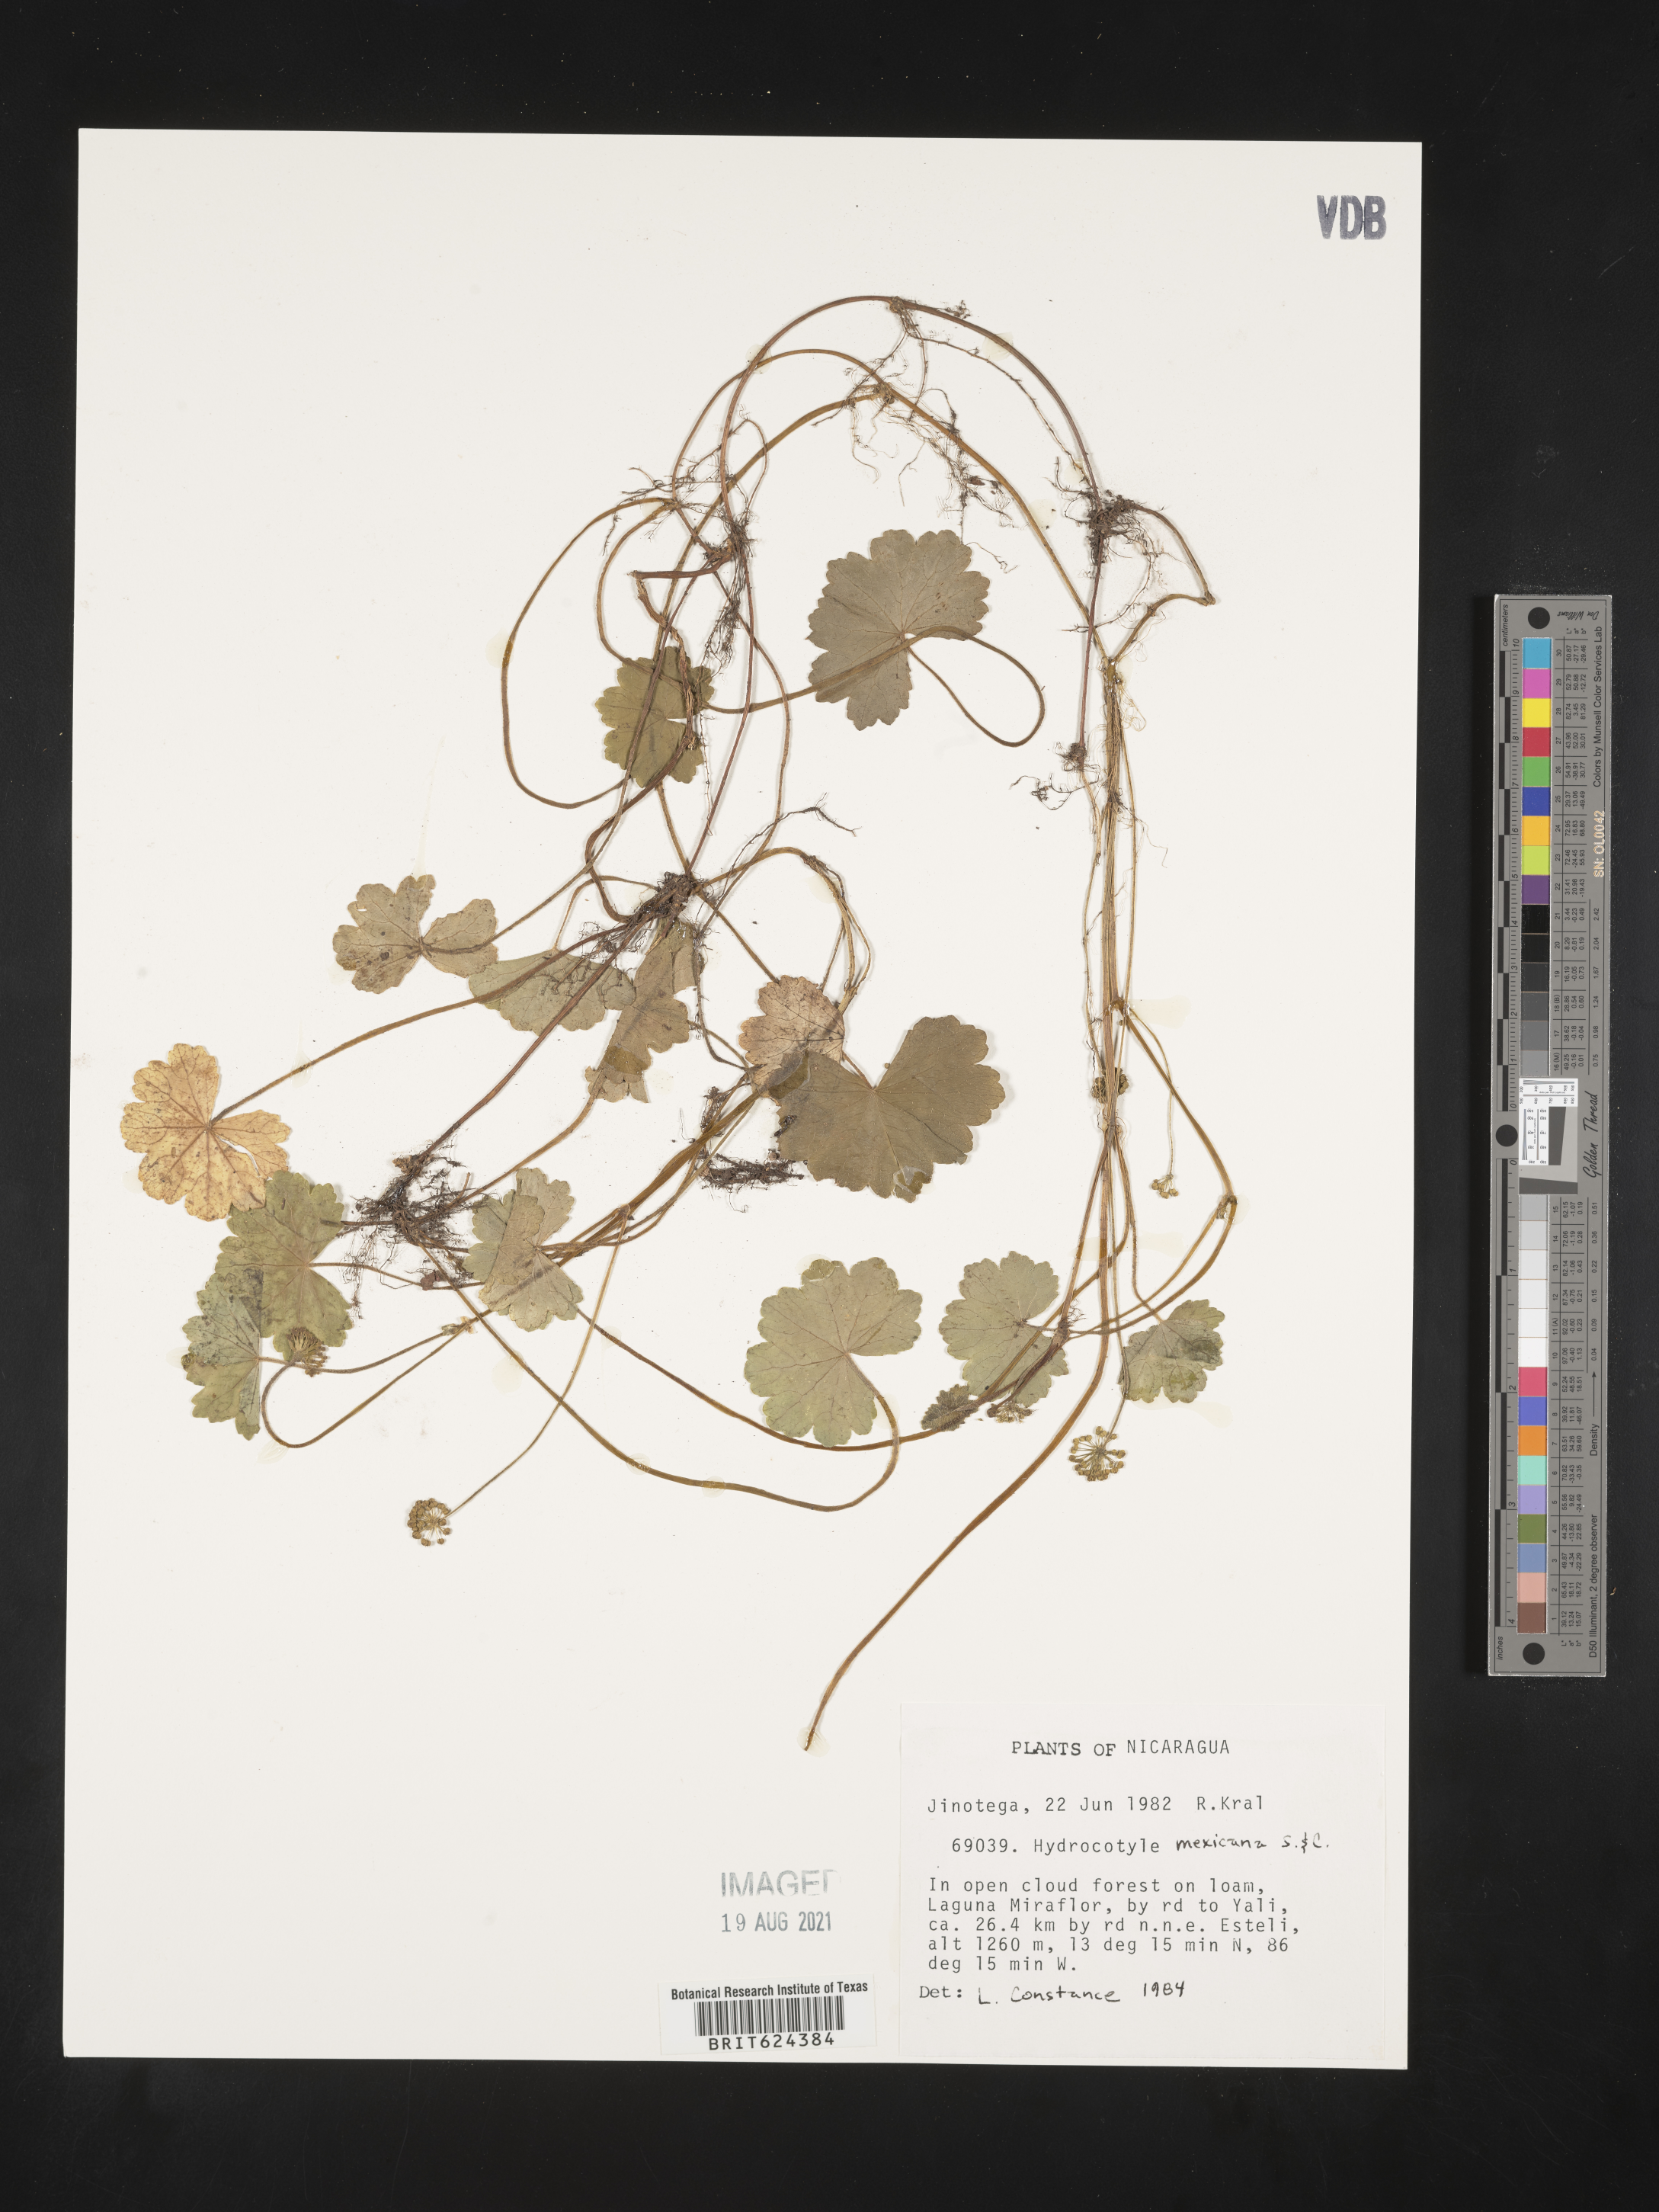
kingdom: Plantae
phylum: Tracheophyta
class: Magnoliopsida
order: Apiales
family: Araliaceae
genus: Hydrocotyle
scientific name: Hydrocotyle mexicana
